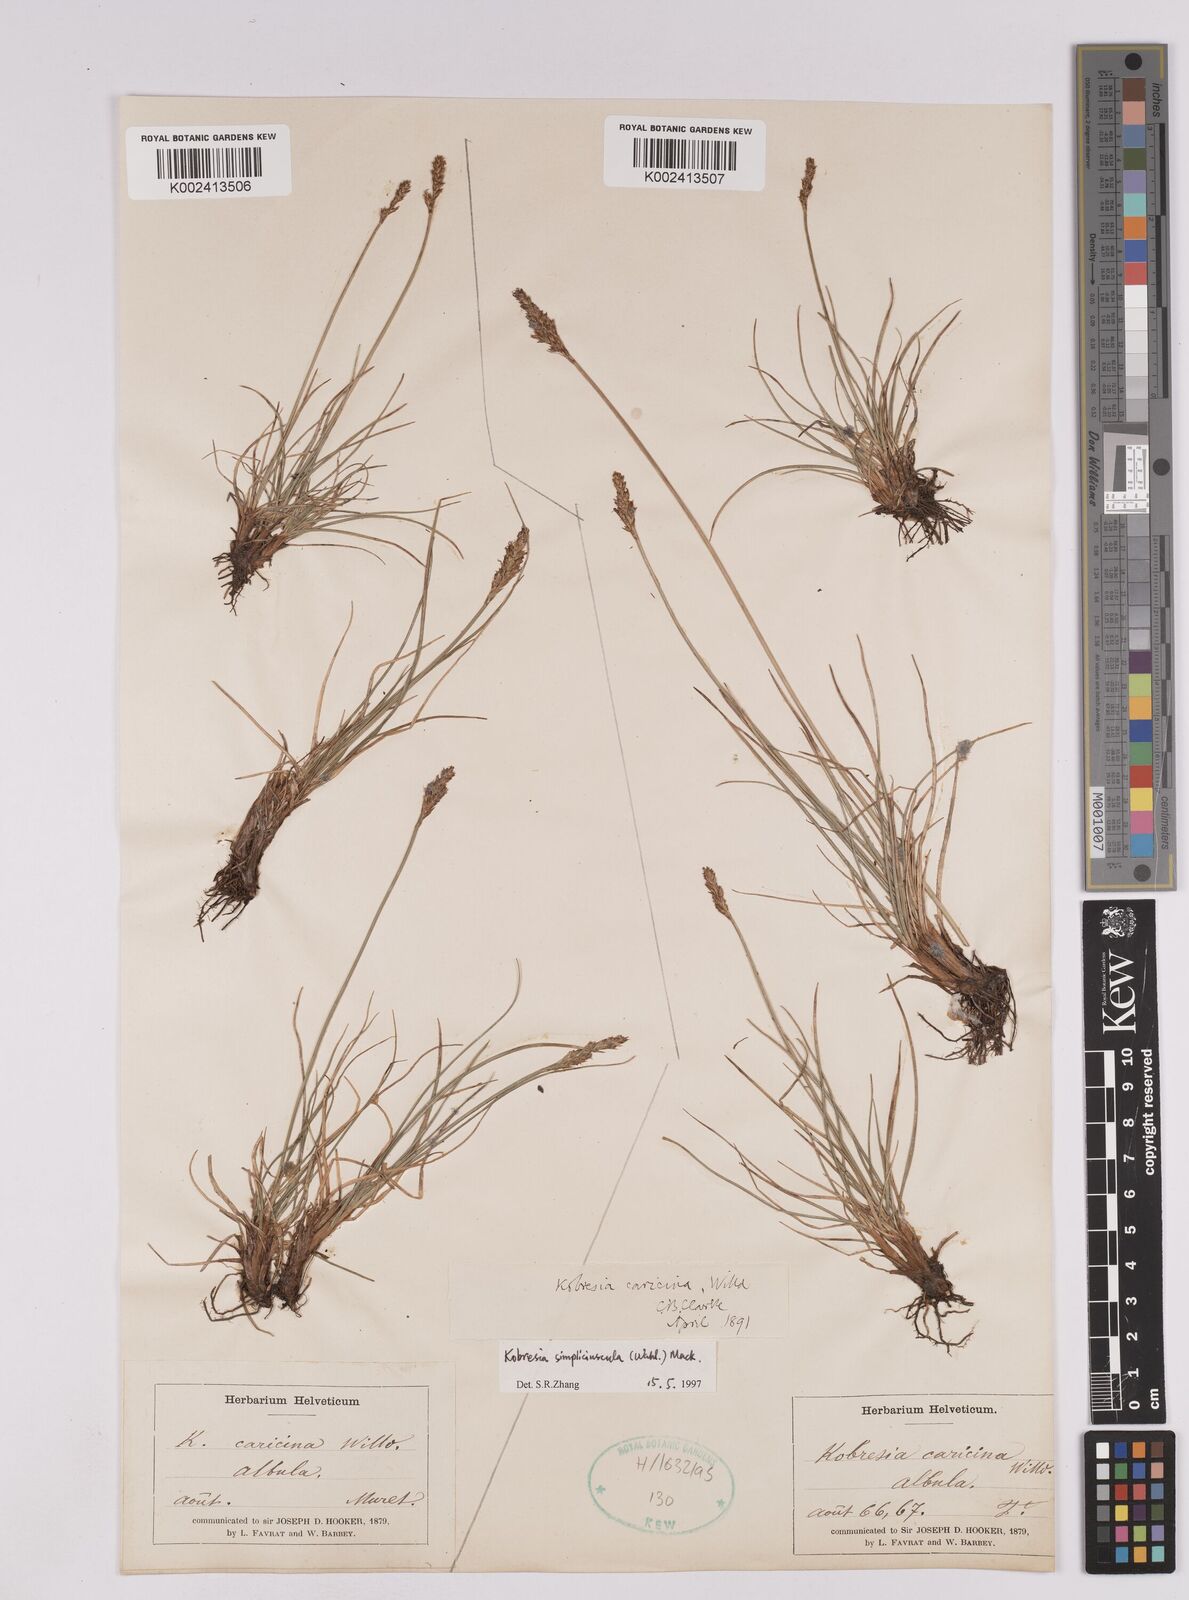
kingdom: Plantae
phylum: Tracheophyta
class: Liliopsida
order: Poales
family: Cyperaceae
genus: Carex
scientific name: Carex simpliciuscula
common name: Simple bog sedge
